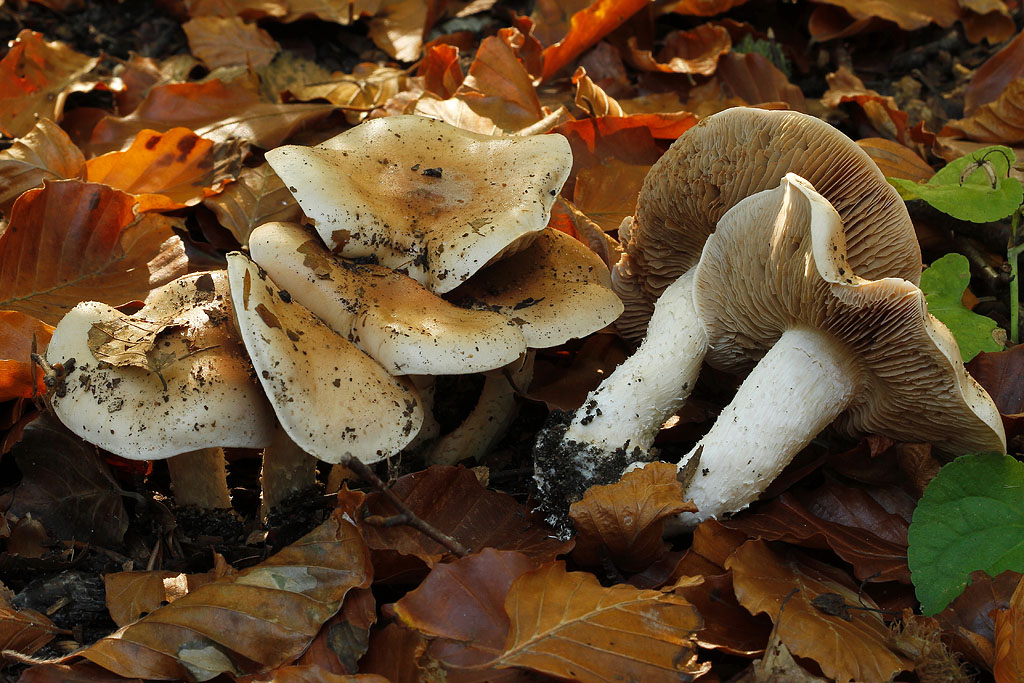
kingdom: Fungi
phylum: Basidiomycota
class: Agaricomycetes
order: Agaricales
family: Hymenogastraceae
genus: Hebeloma
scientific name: Hebeloma sinapizans
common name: ræddike-tåreblad
